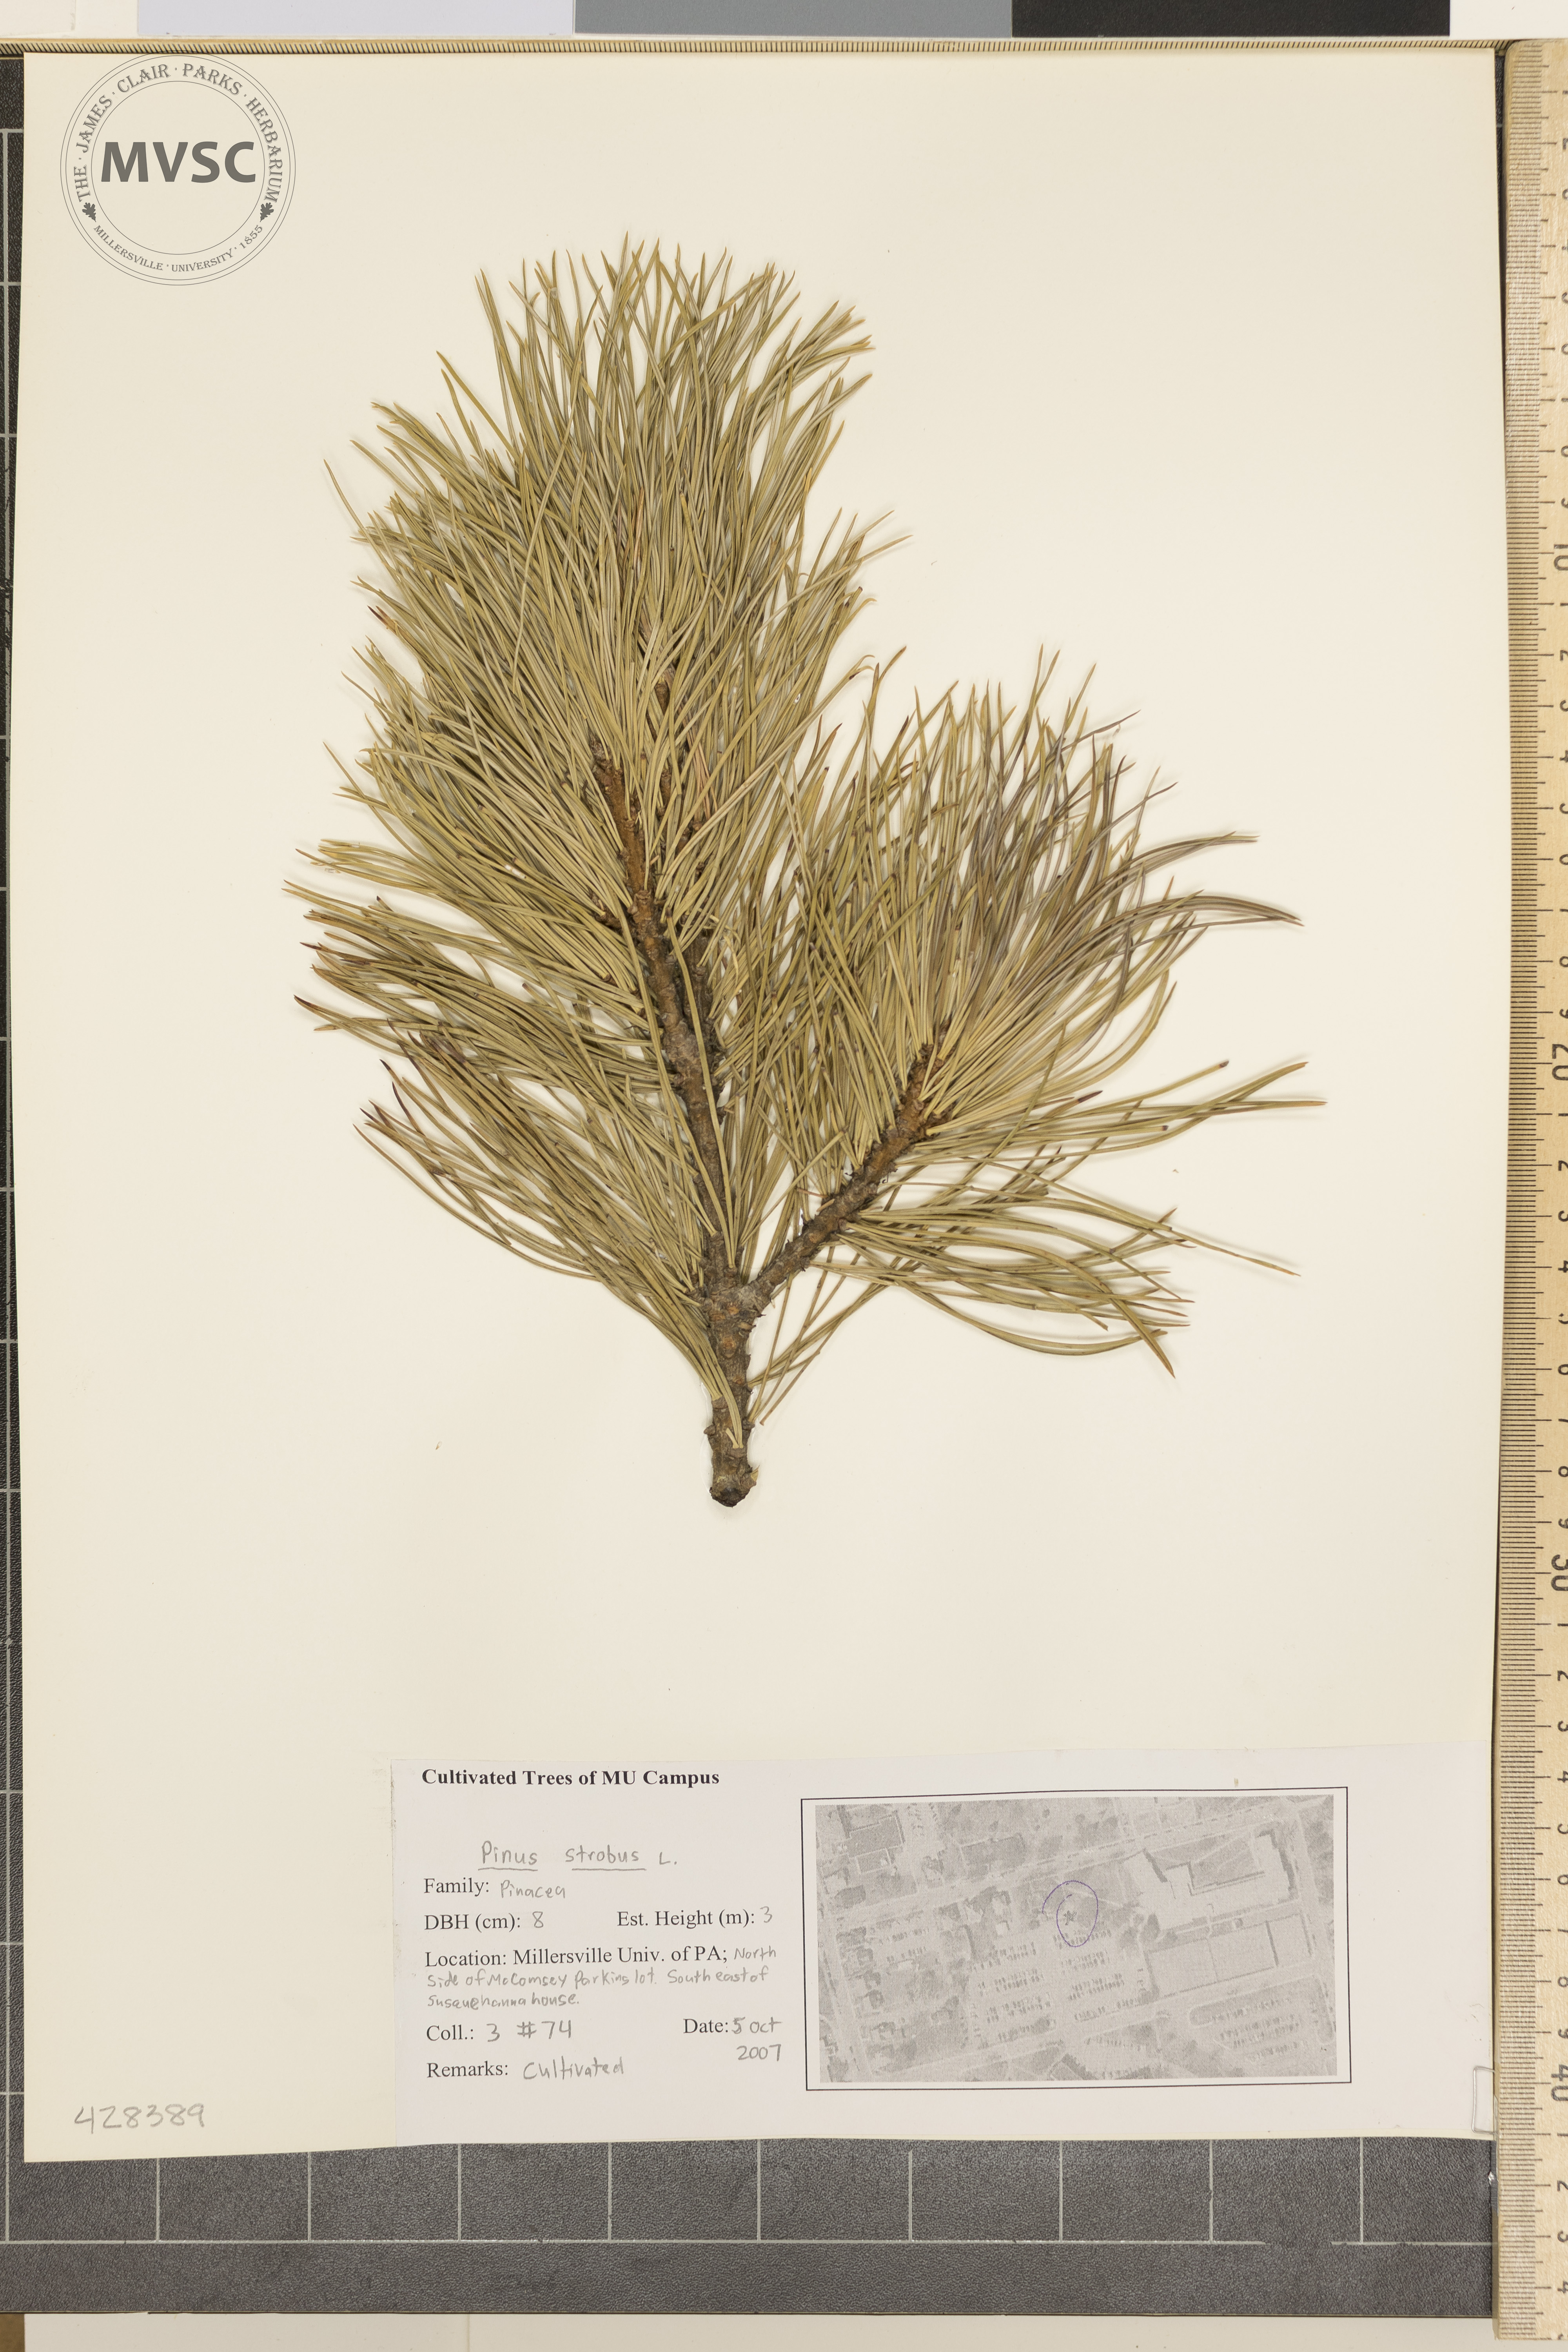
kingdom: Plantae
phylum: Tracheophyta
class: Pinopsida
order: Pinales
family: Pinaceae
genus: Pinus
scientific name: Pinus strobus
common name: Eastern White Pine
